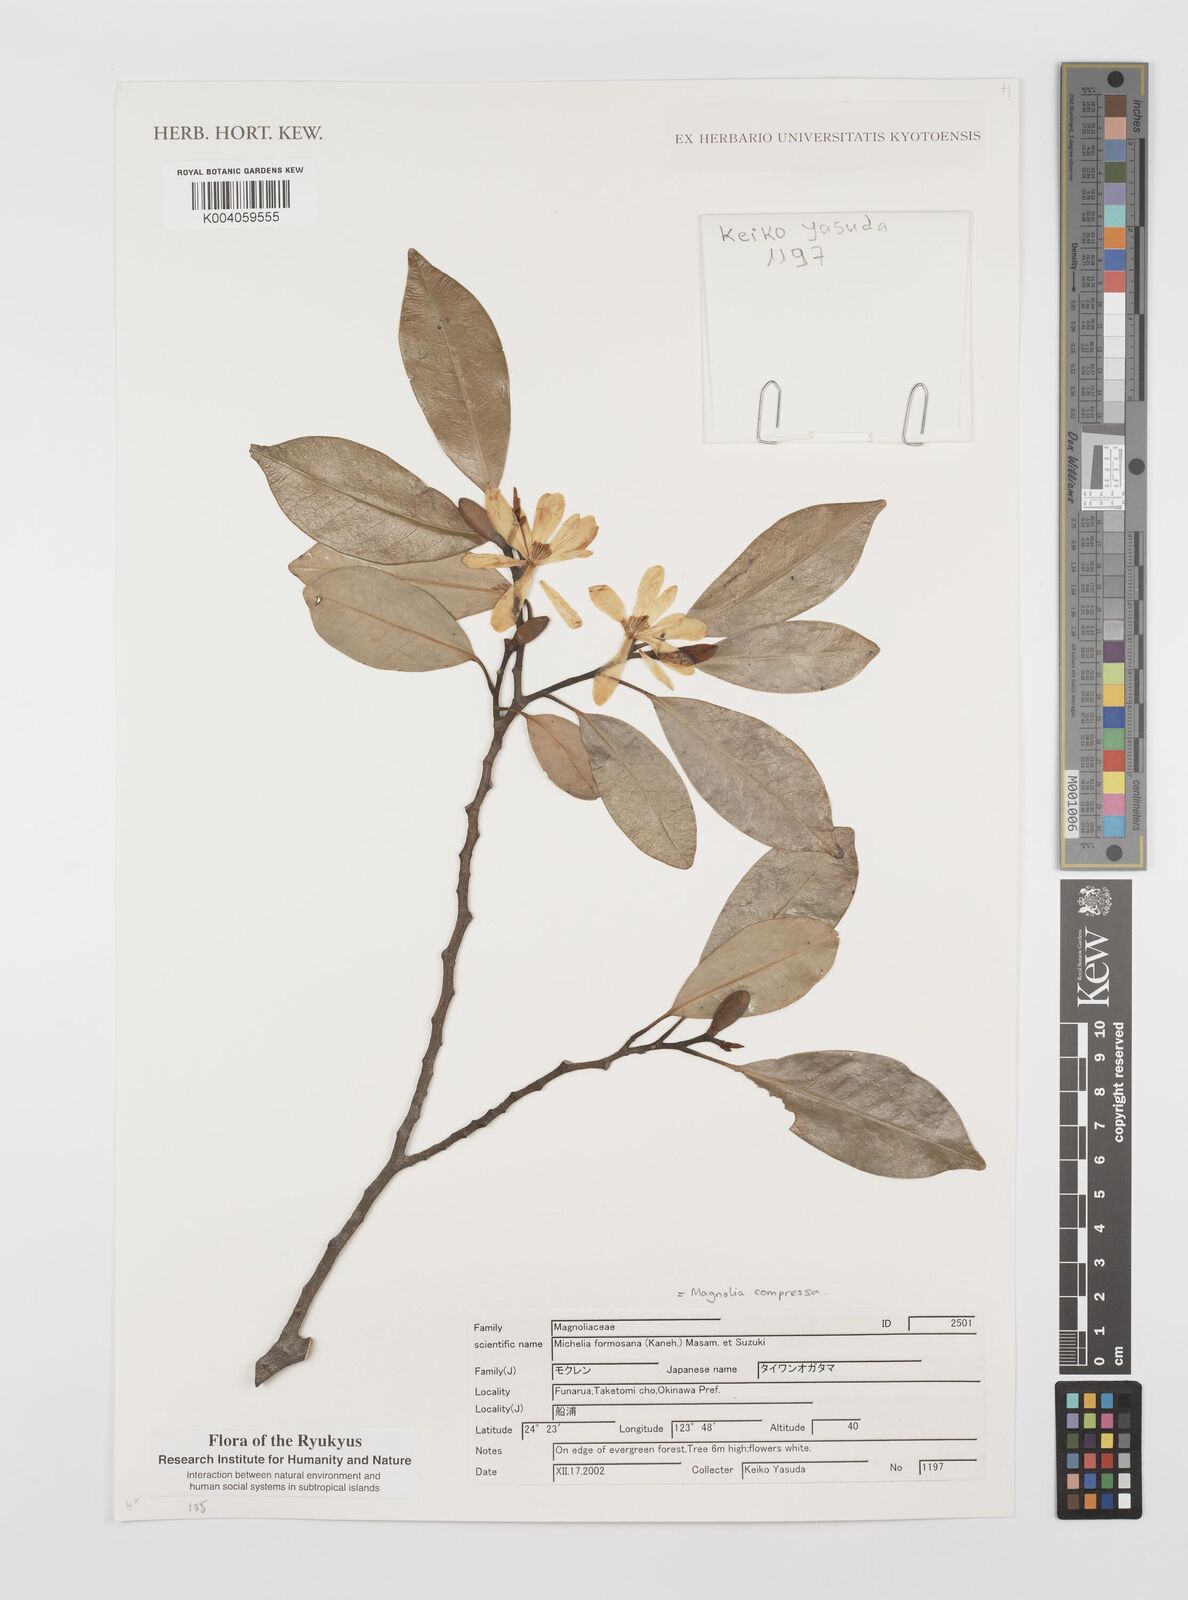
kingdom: Plantae
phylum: Tracheophyta
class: Magnoliopsida
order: Magnoliales
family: Magnoliaceae
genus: Magnolia
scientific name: Magnolia compressa
